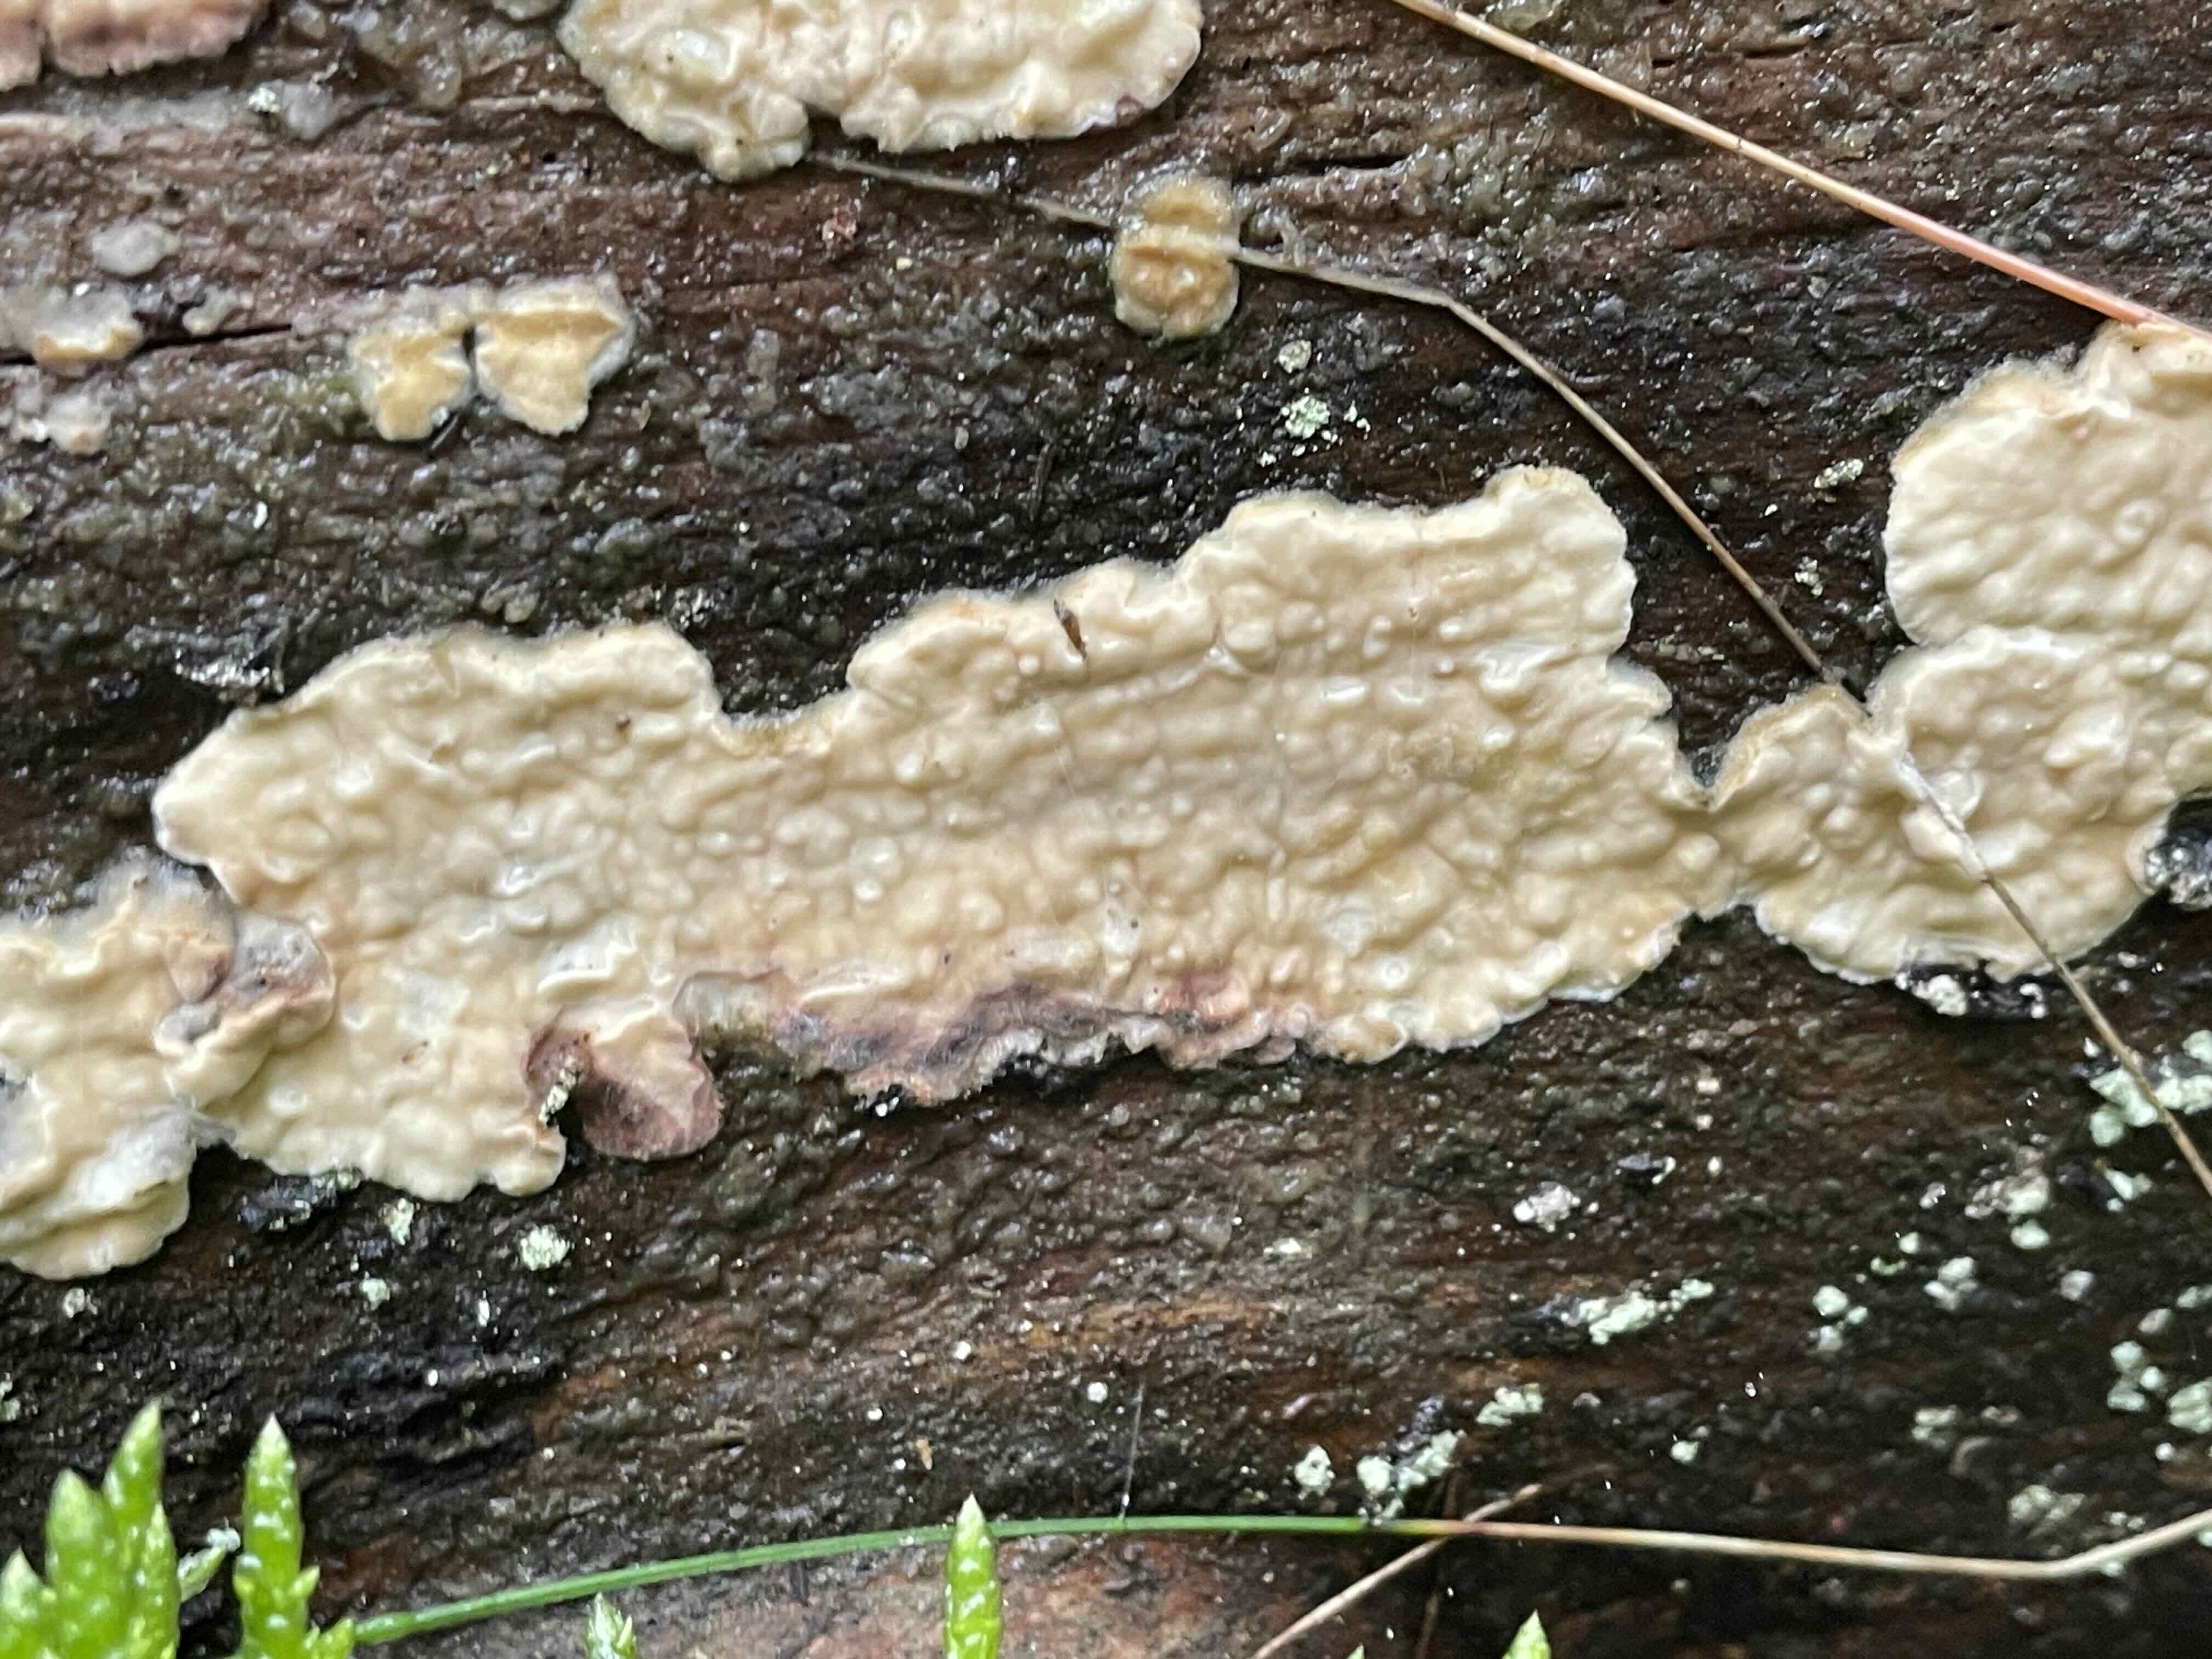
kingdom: Fungi
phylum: Basidiomycota
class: Agaricomycetes
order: Polyporales
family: Dacryobolaceae
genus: Dacryobolus
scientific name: Dacryobolus karstenii
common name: glat vulkanskorpe
